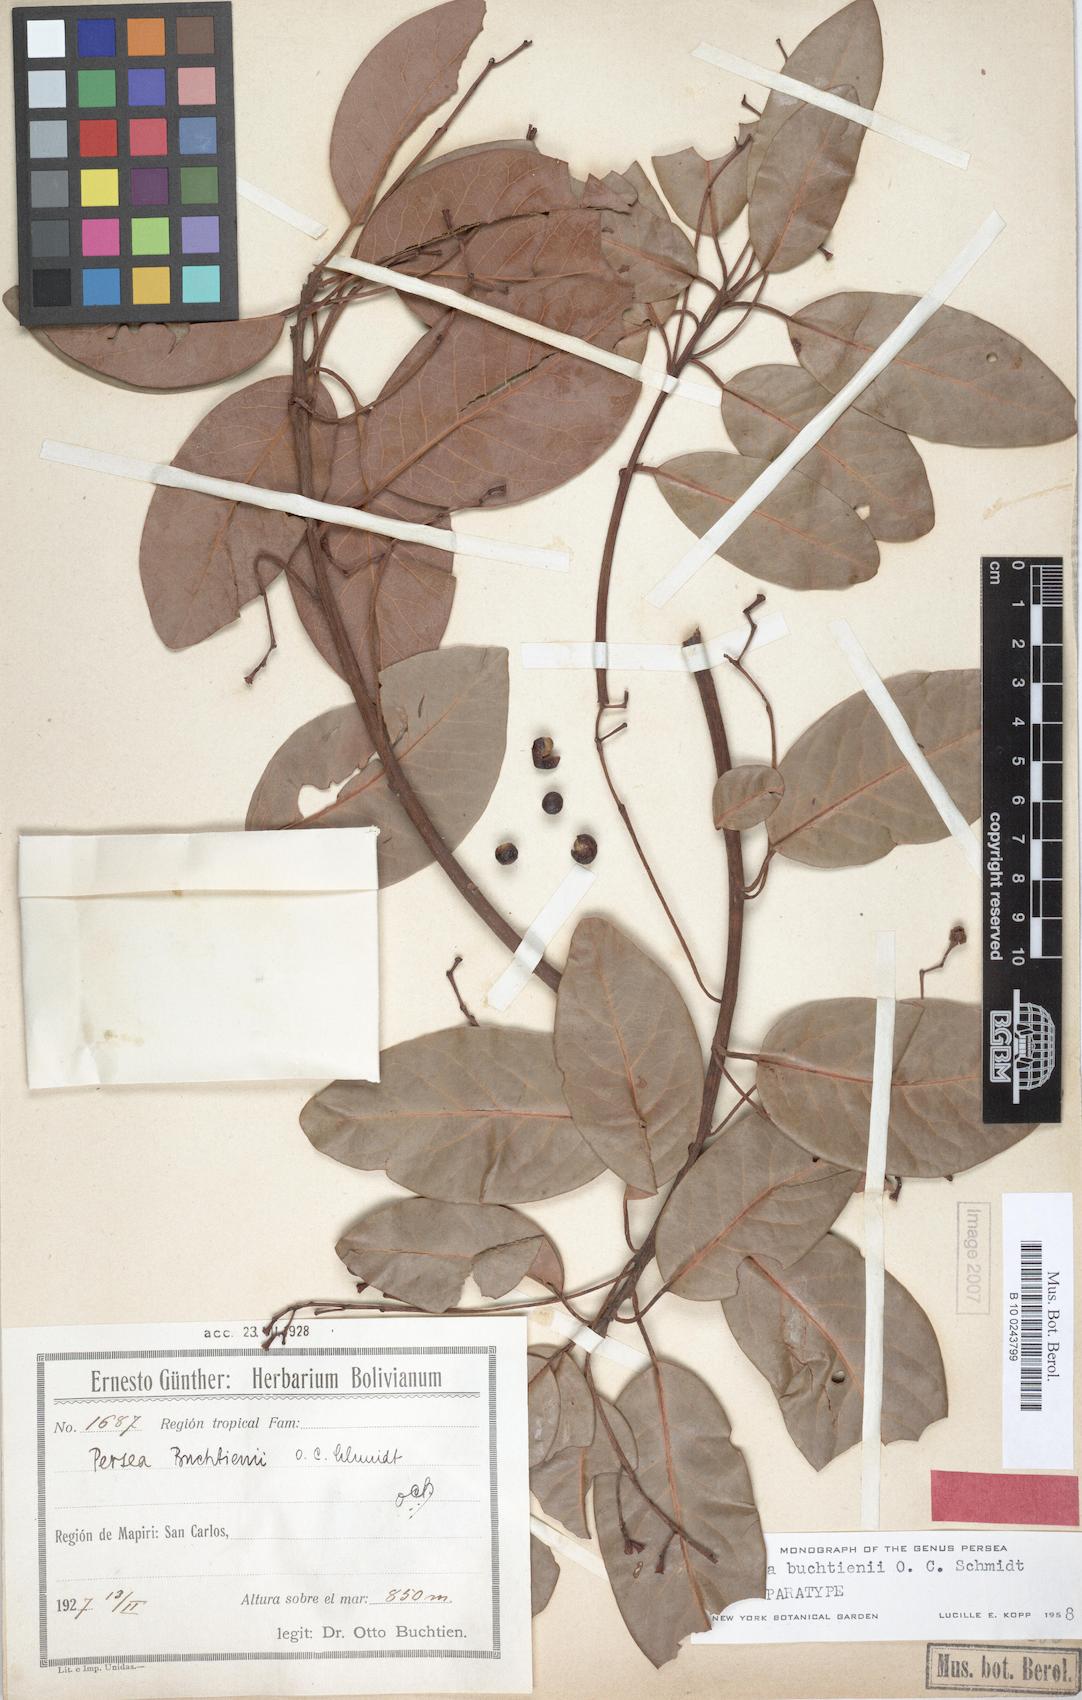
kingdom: Plantae
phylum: Tracheophyta
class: Magnoliopsida
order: Laurales
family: Lauraceae
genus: Persea
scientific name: Persea buchtienii
